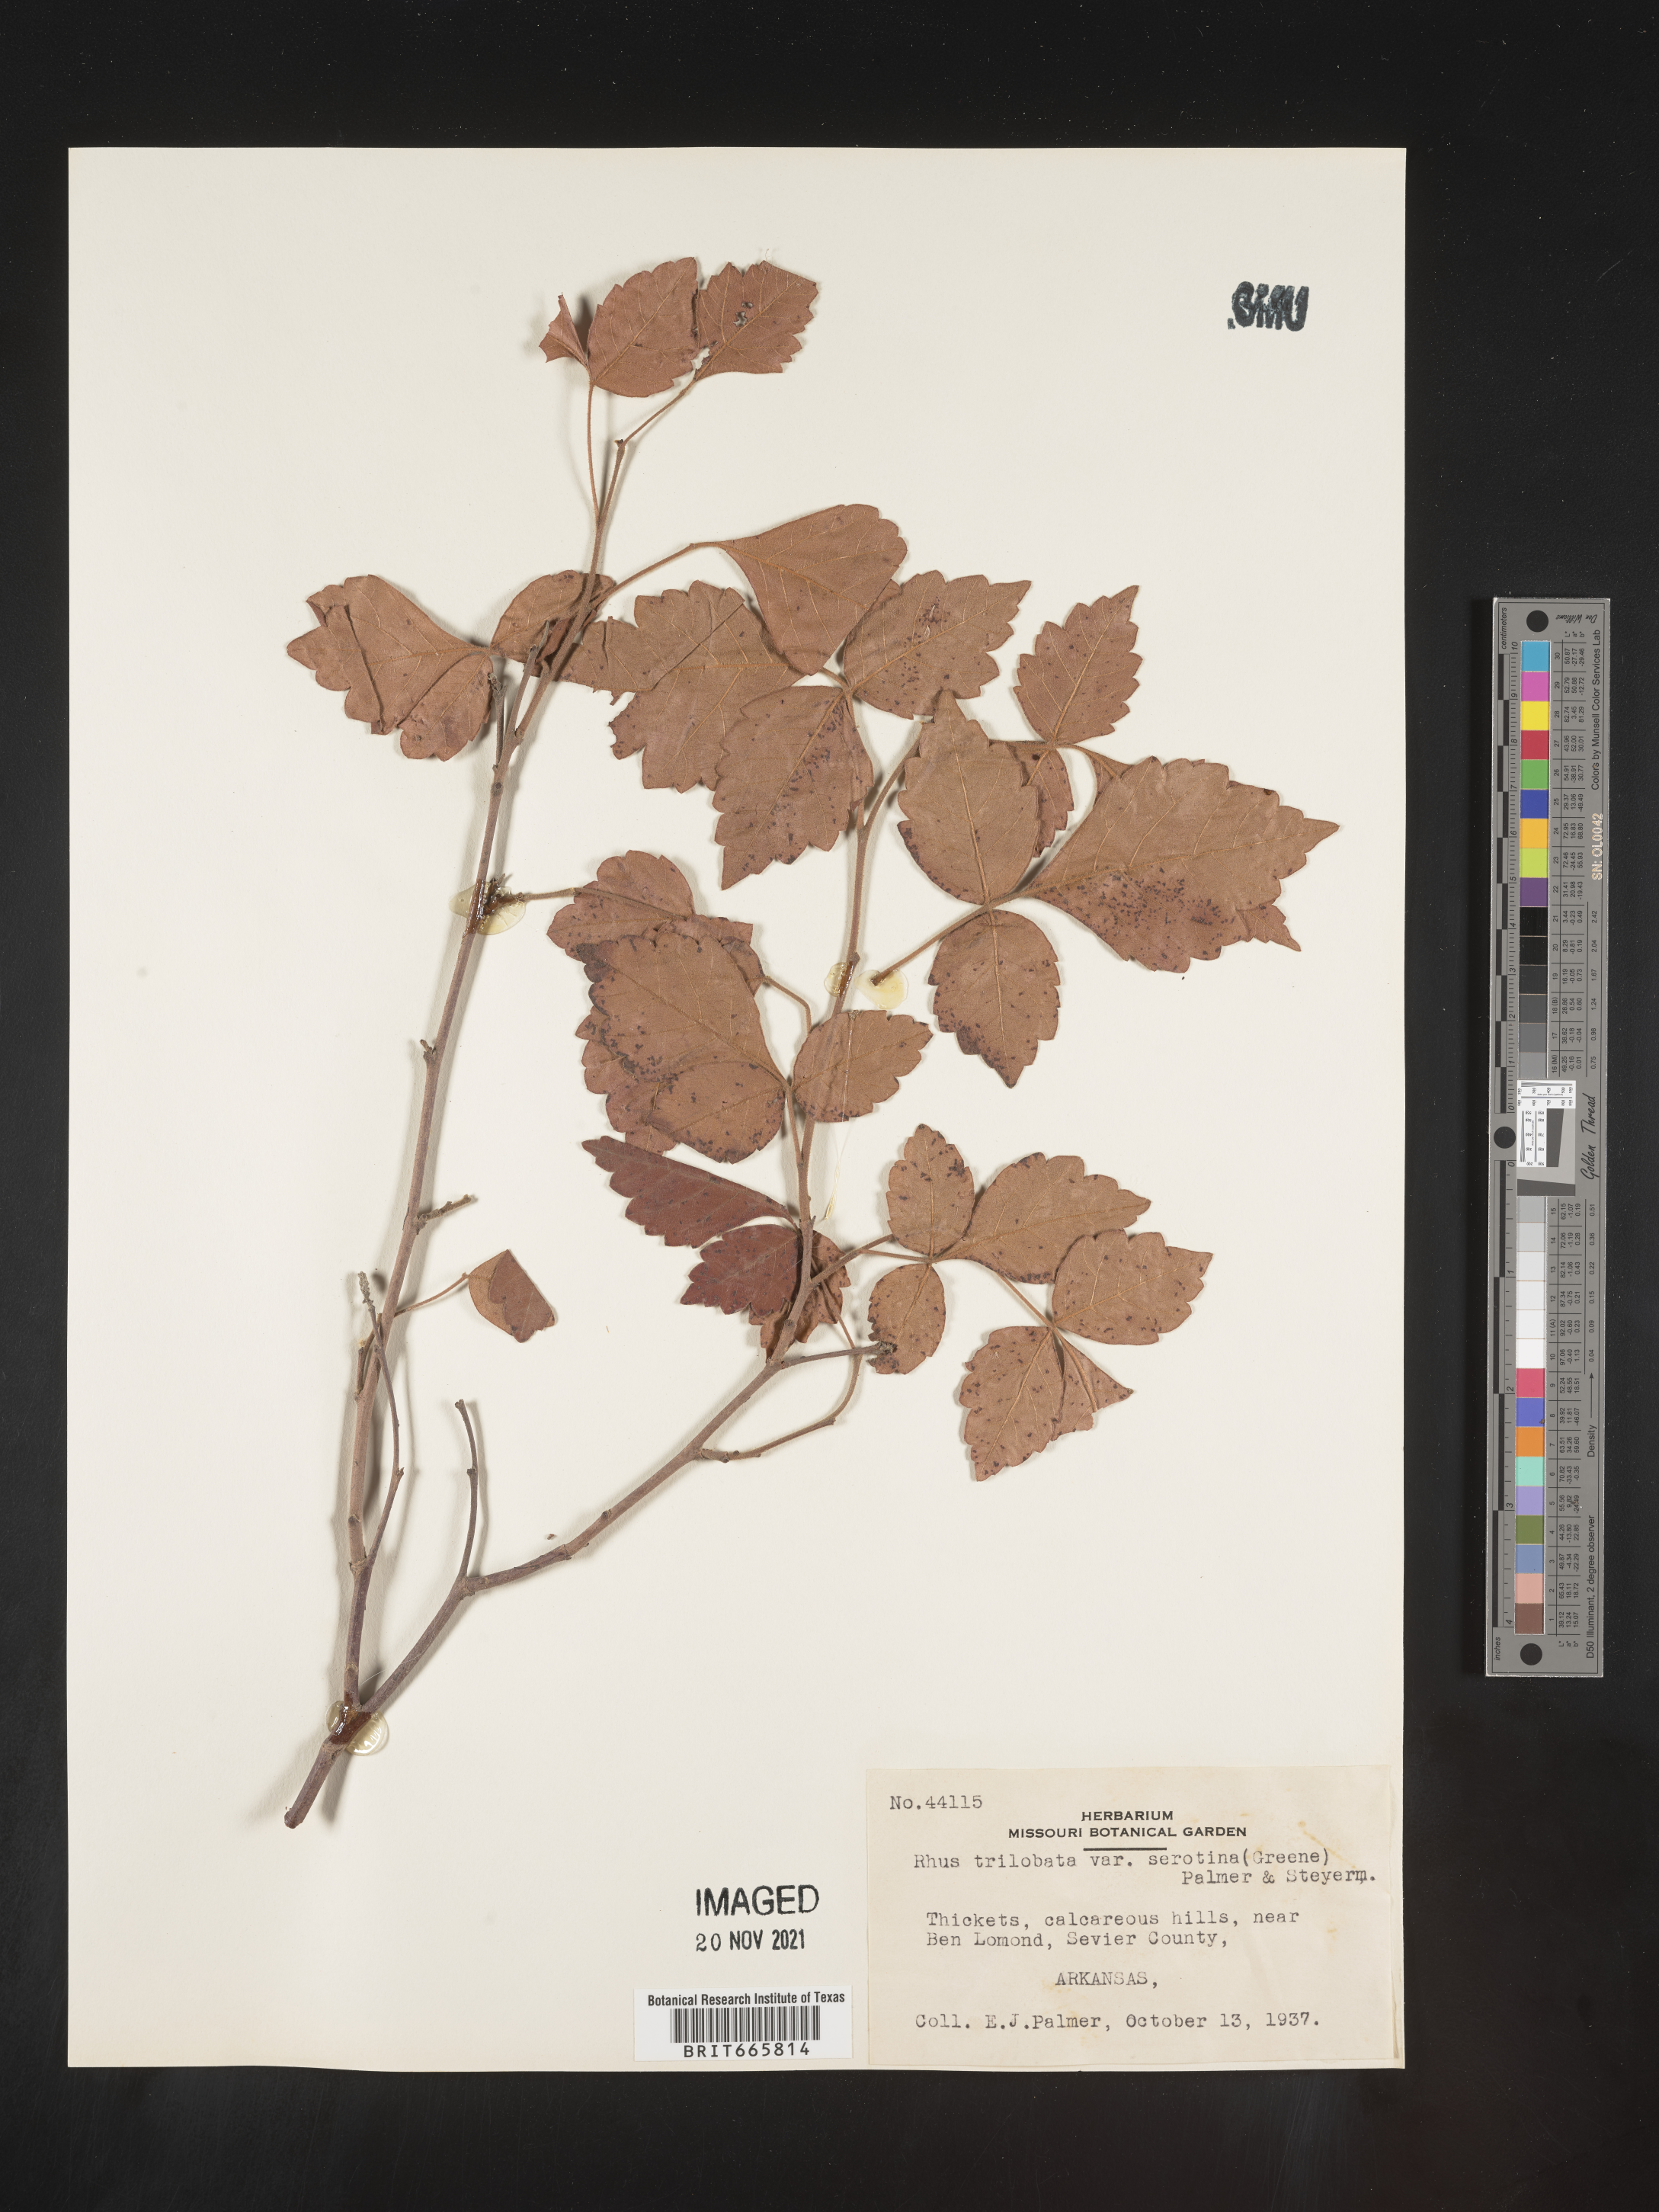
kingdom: Plantae
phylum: Tracheophyta
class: Magnoliopsida
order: Sapindales
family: Anacardiaceae
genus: Rhus
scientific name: Rhus aromatica
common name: Aromatic sumac
